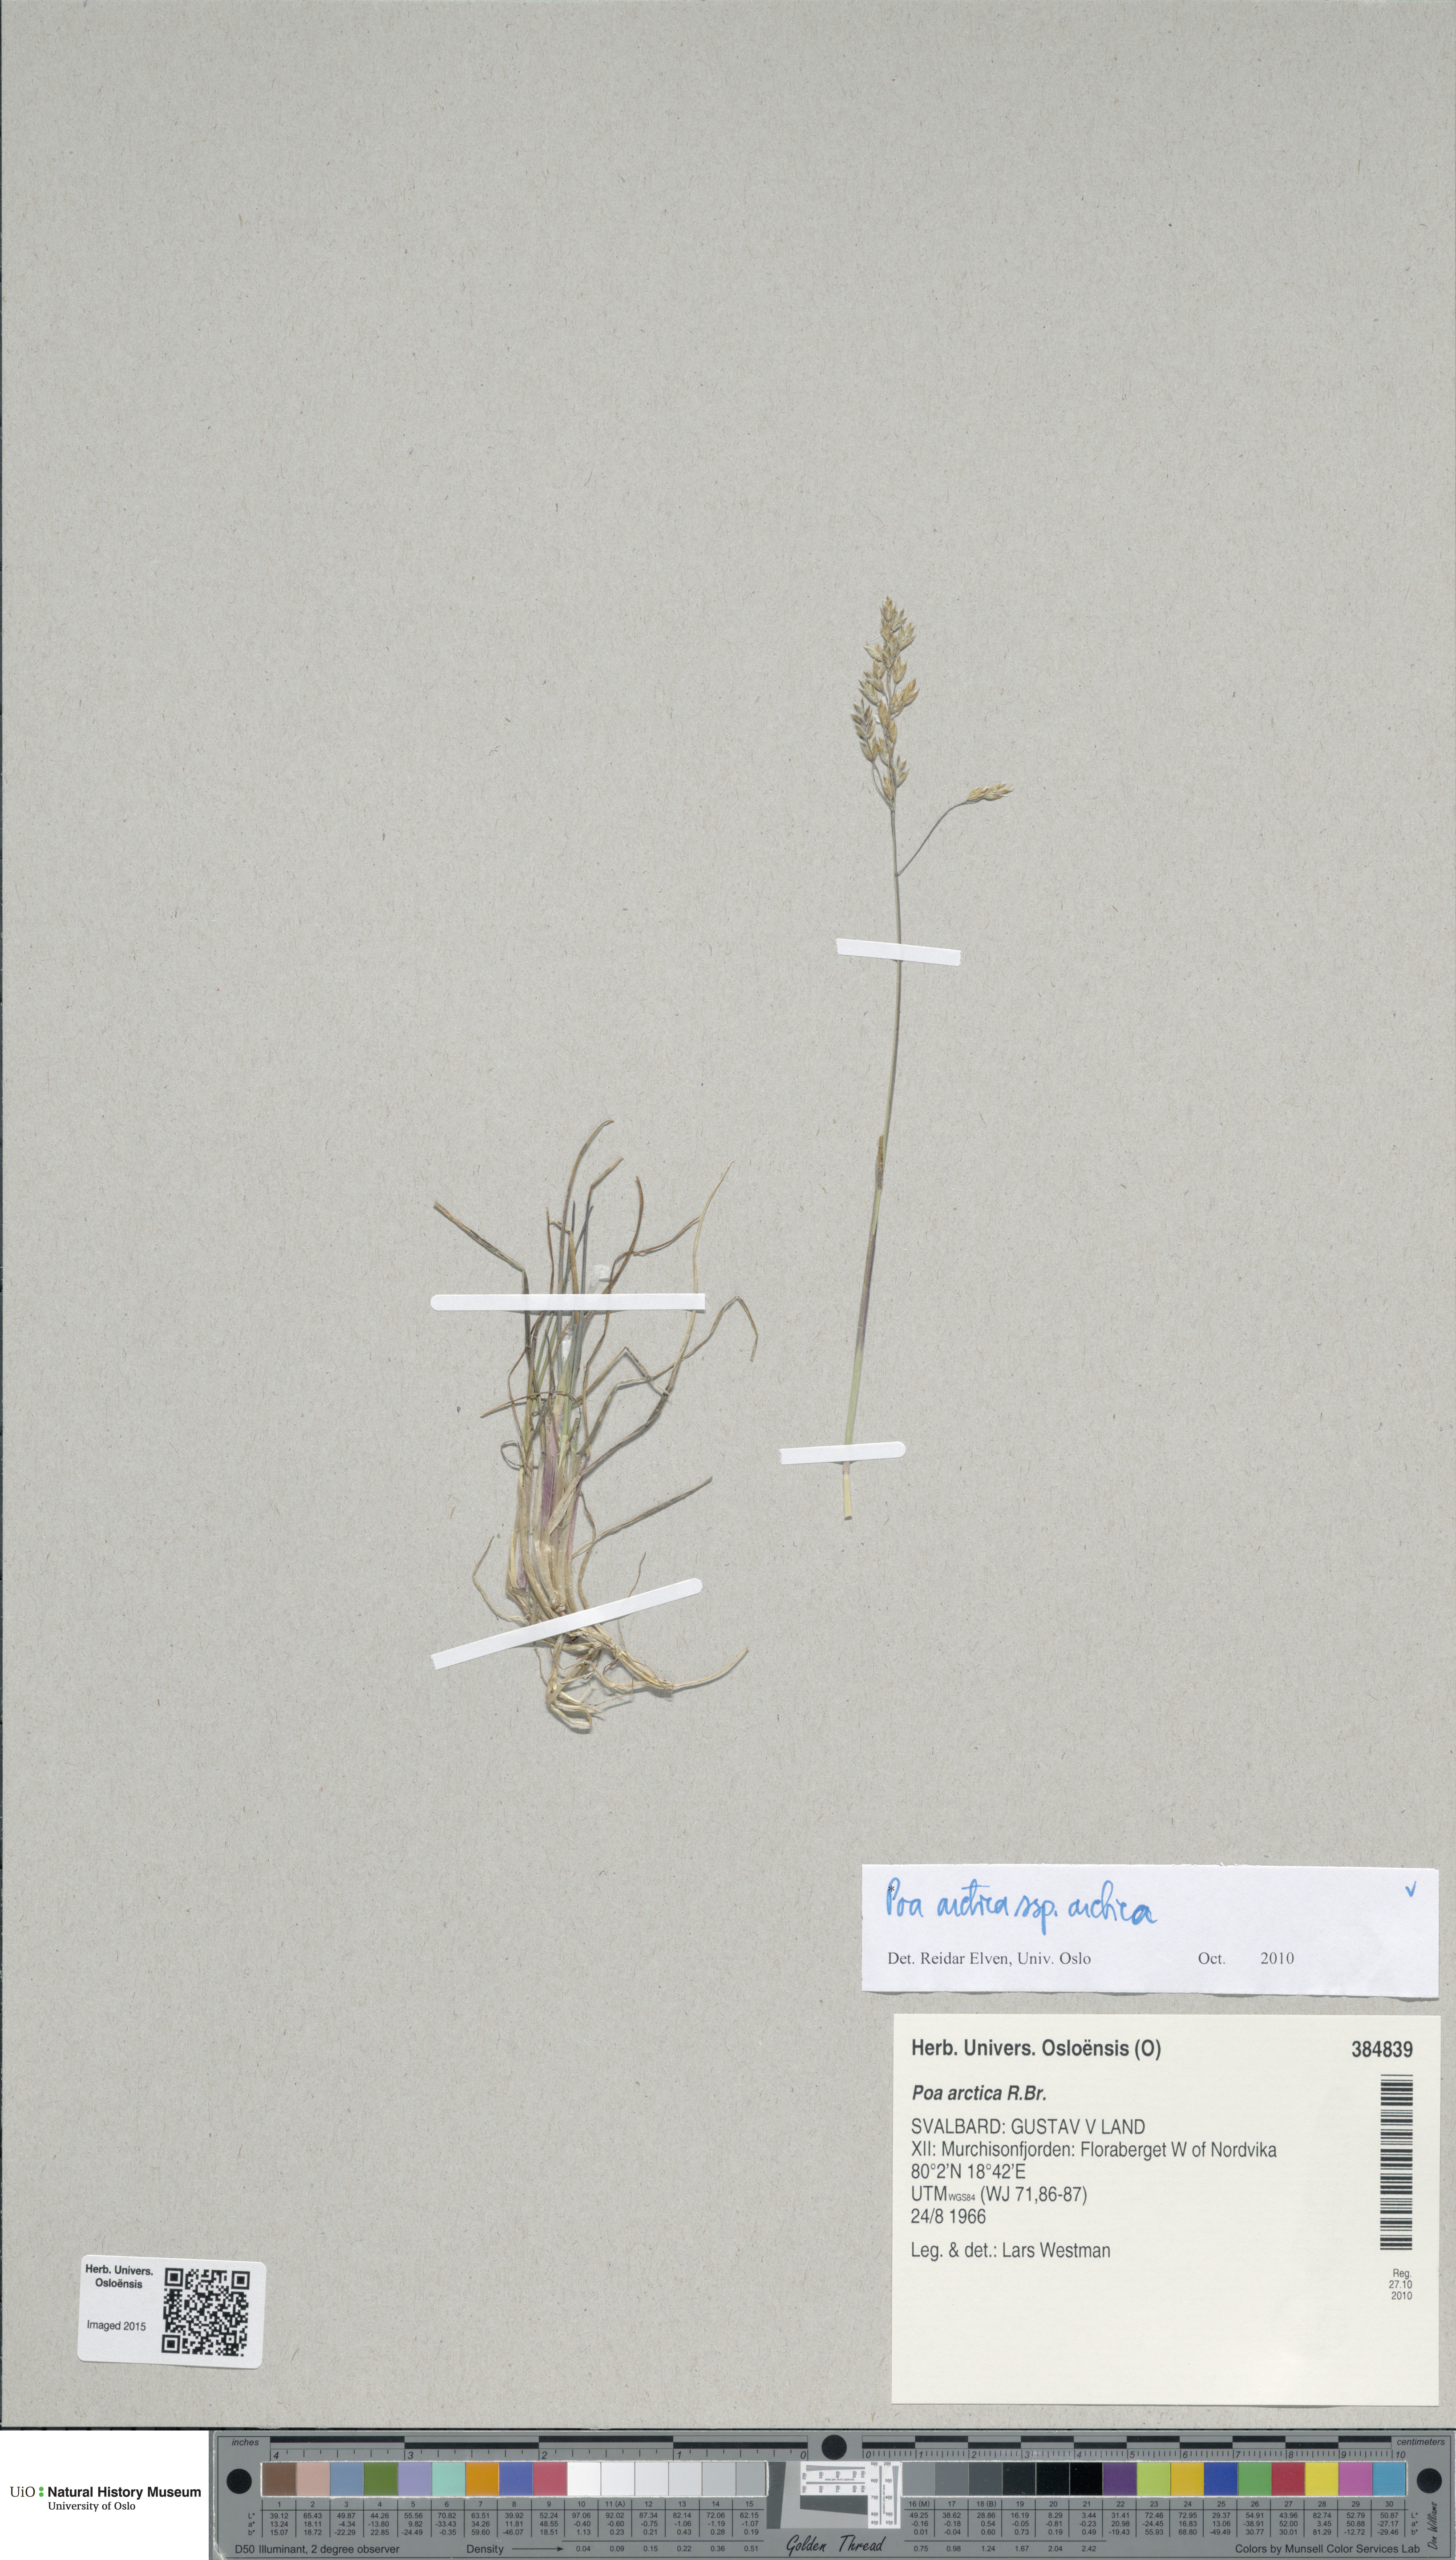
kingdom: Plantae
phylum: Tracheophyta
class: Liliopsida
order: Poales
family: Poaceae
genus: Poa
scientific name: Poa arctica
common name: Arctic bluegrass
